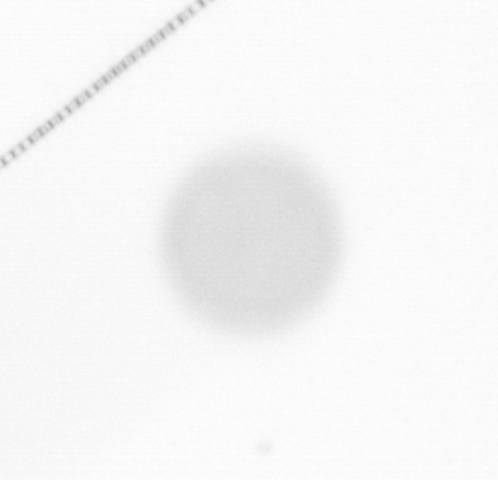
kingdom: Chromista
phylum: Ochrophyta
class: Bacillariophyceae
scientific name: Bacillariophyceae
